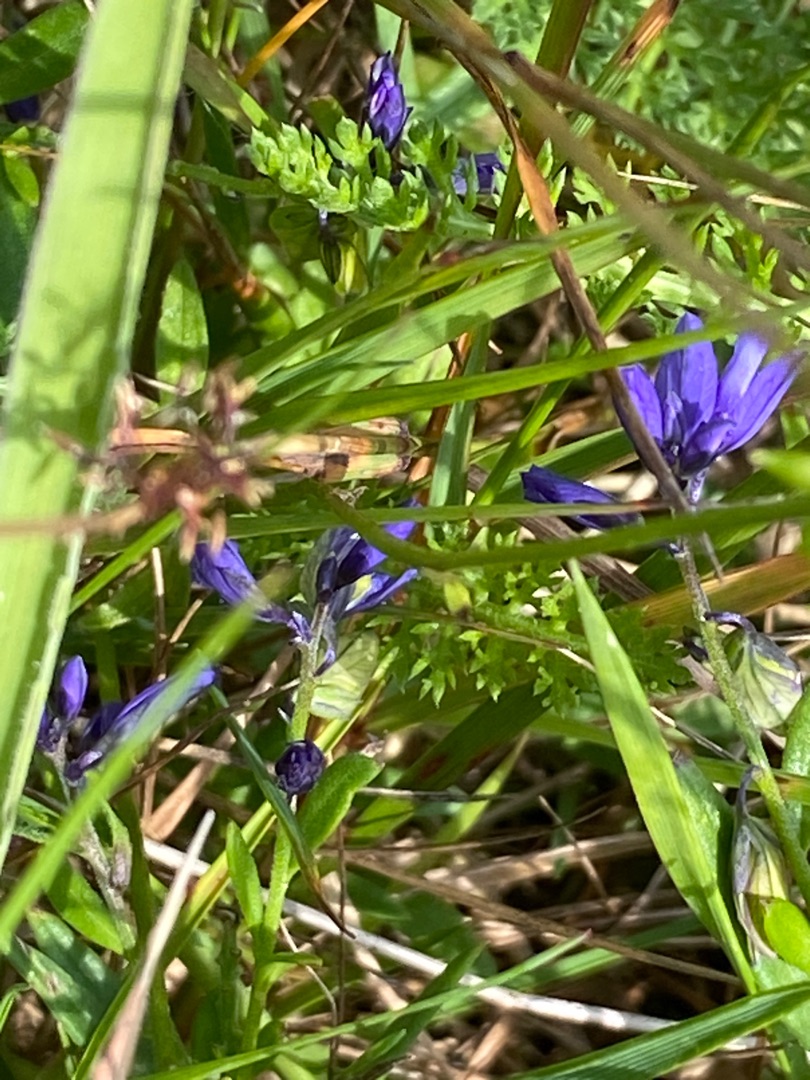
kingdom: Plantae
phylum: Tracheophyta
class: Magnoliopsida
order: Fabales
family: Polygalaceae
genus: Polygala
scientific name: Polygala
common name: Mælkeurtslægten
